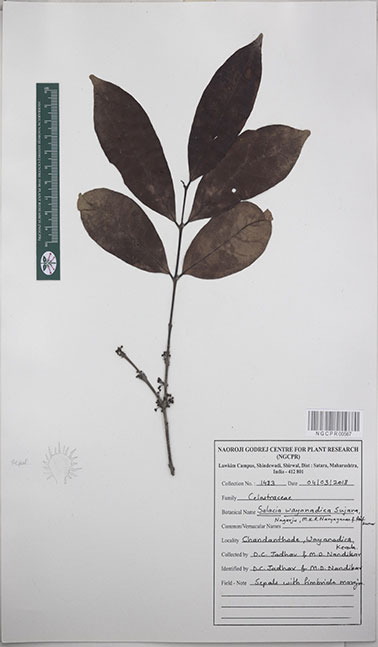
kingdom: Plantae
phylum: Tracheophyta
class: Magnoliopsida
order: Celastrales
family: Celastraceae
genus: Salacia
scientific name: Salacia wayanadica
